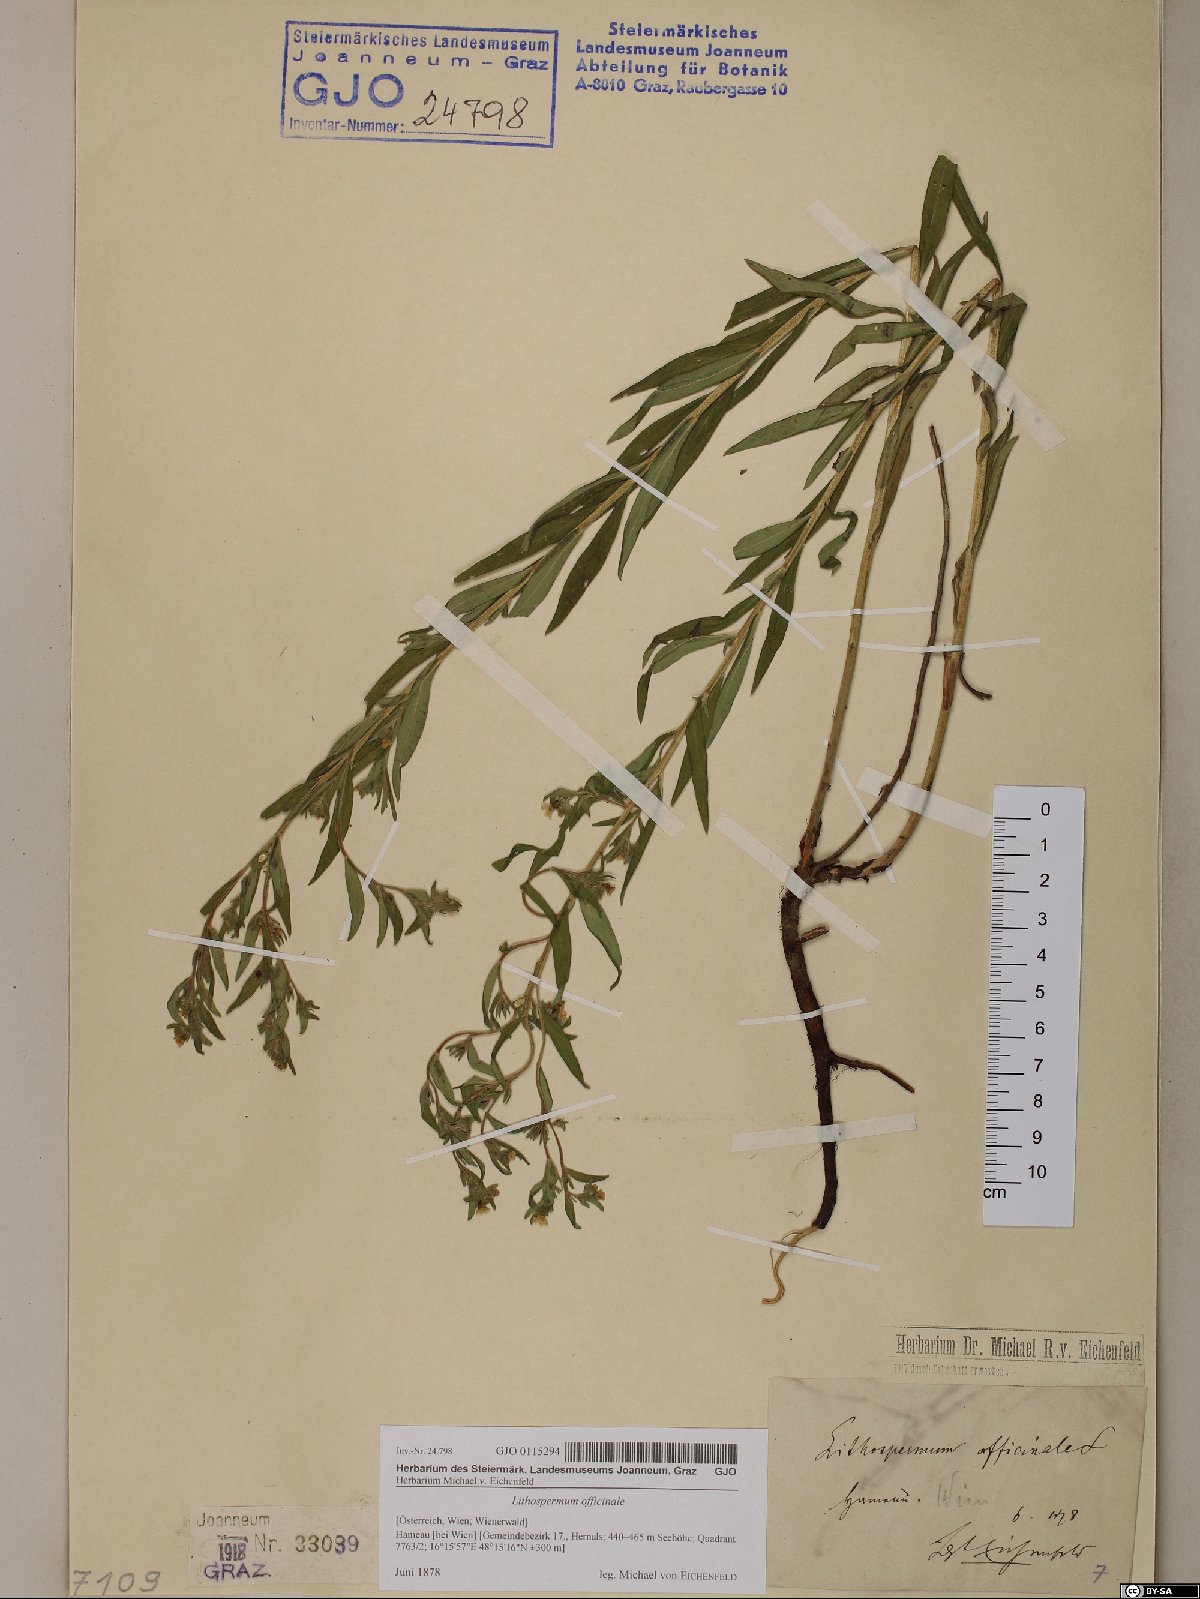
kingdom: Plantae
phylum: Tracheophyta
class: Magnoliopsida
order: Boraginales
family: Boraginaceae
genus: Lithospermum
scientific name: Lithospermum officinale
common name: Common gromwell
